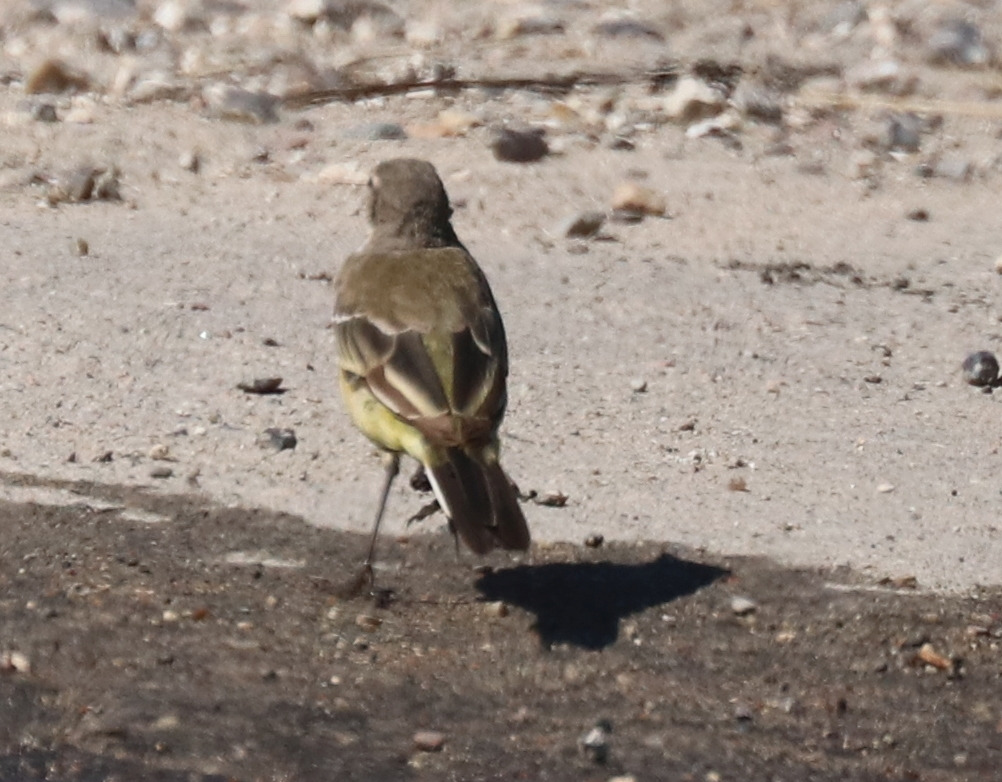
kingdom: Animalia
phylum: Chordata
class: Aves
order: Passeriformes
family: Motacillidae
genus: Motacilla
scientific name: Motacilla flava
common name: Gul vipstjert
